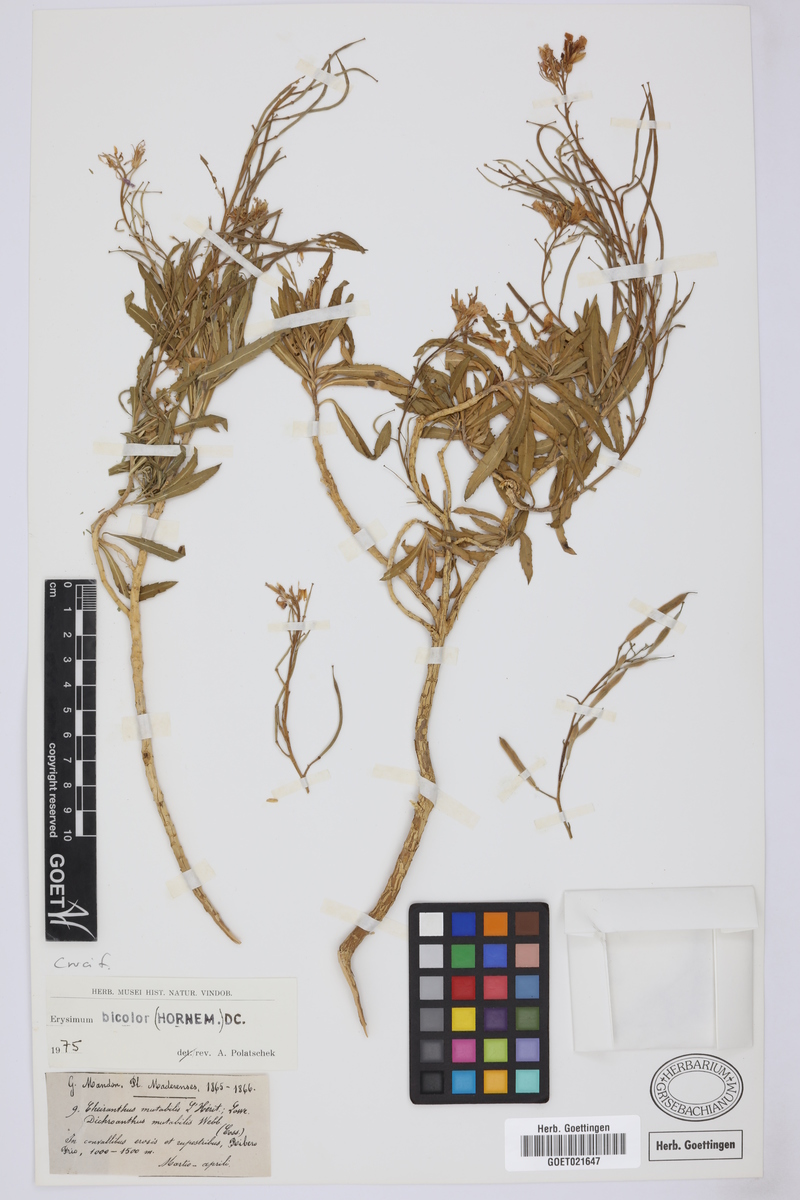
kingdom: Plantae
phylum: Tracheophyta
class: Magnoliopsida
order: Brassicales
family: Brassicaceae
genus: Erysimum
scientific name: Erysimum bicolor
